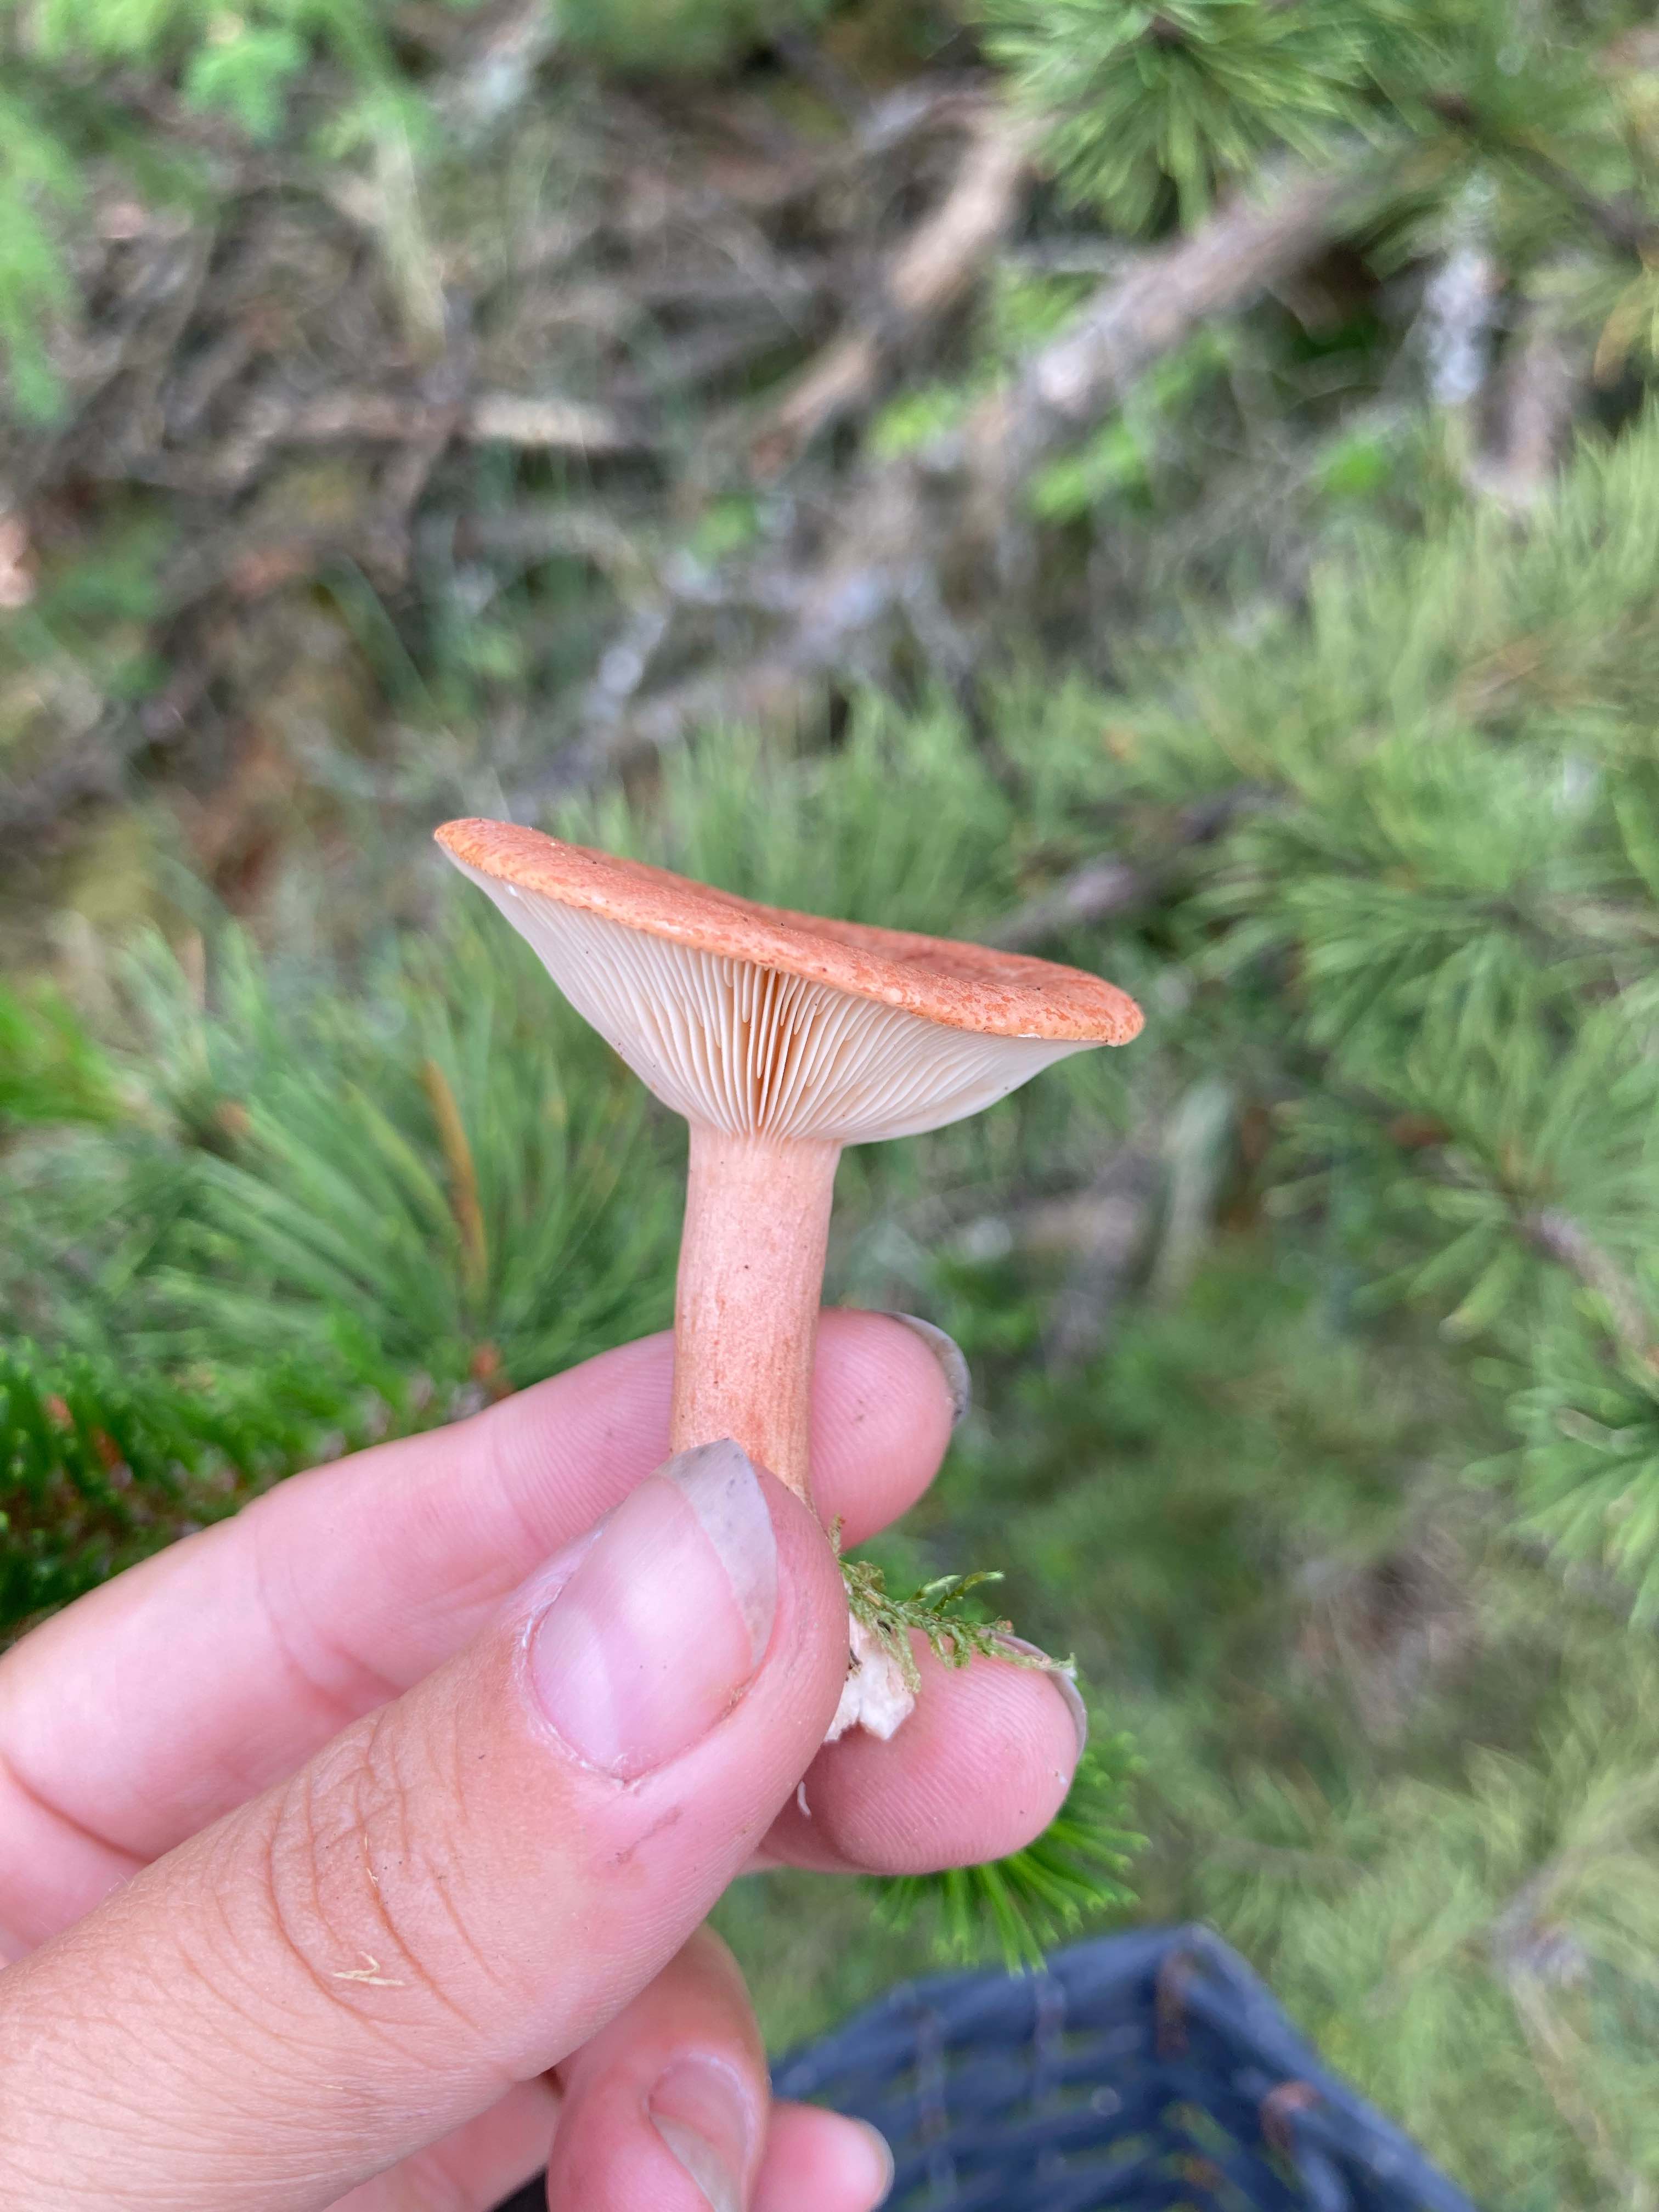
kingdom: Fungi
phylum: Basidiomycota
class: Agaricomycetes
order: Russulales
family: Russulaceae
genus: Lactarius
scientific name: Lactarius rufus
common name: rødbrun mælkehat
